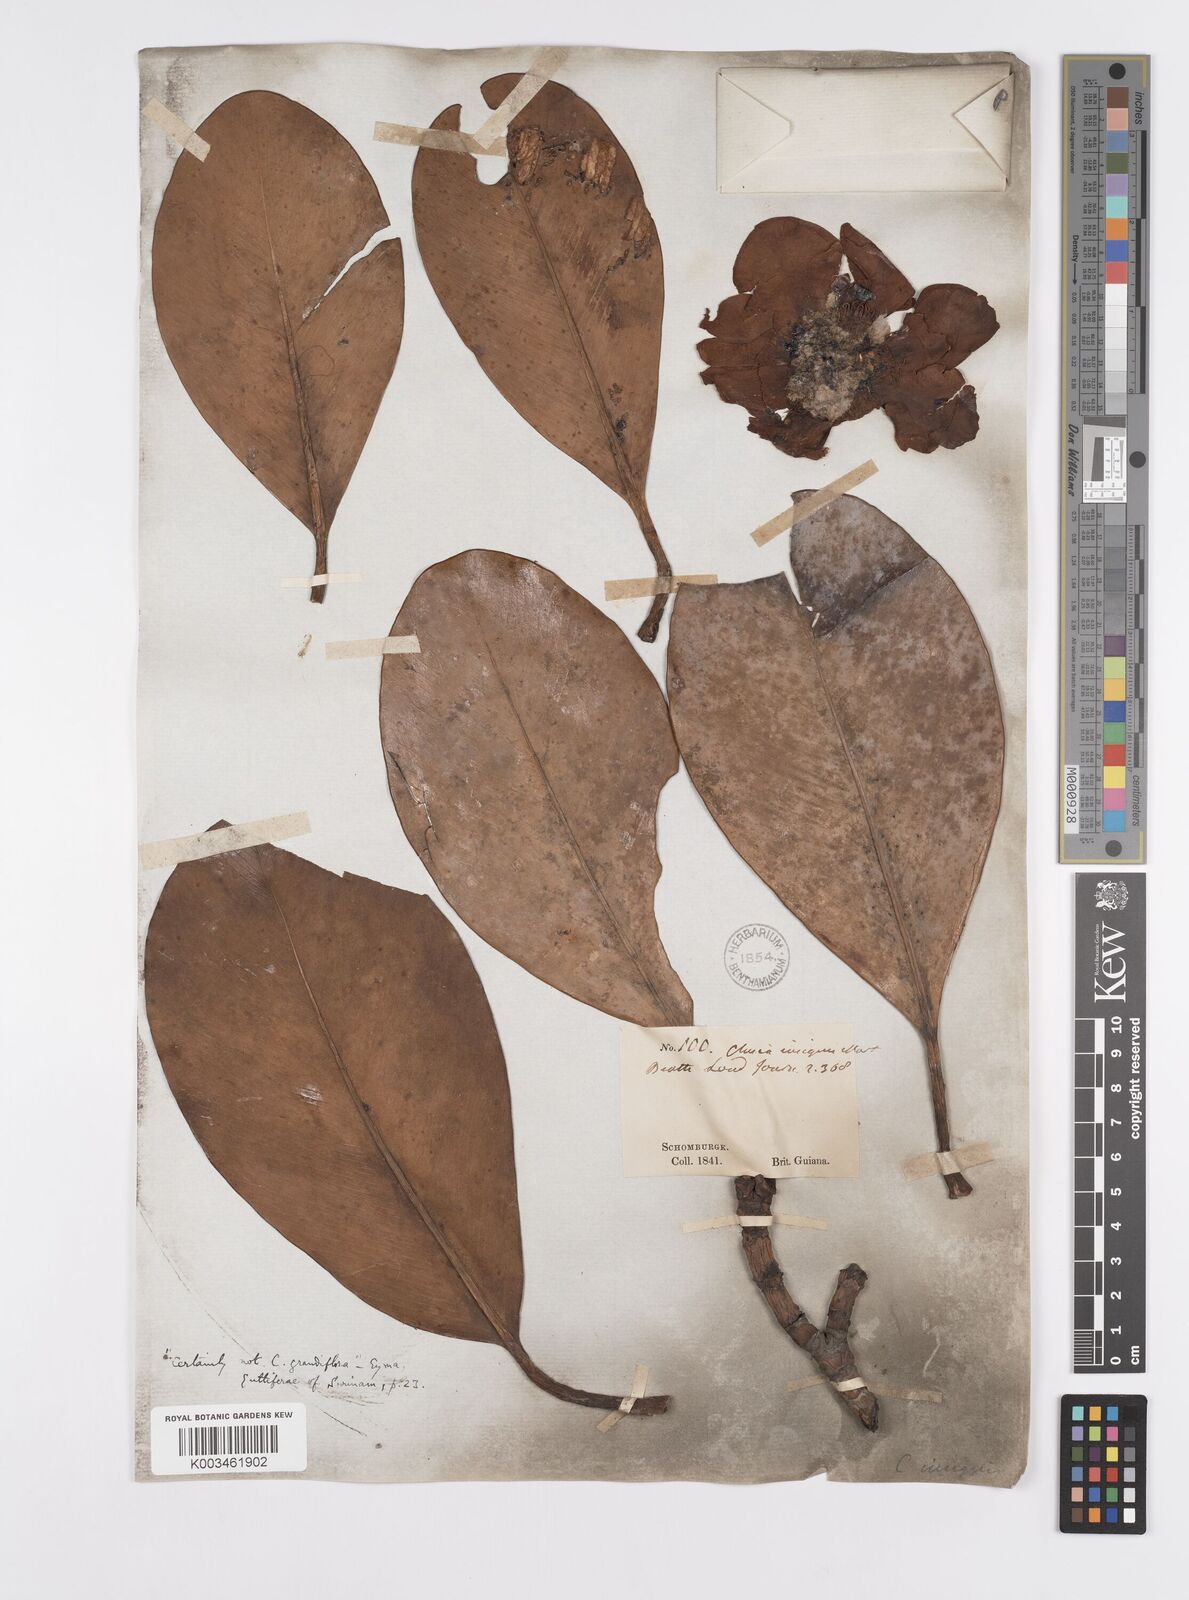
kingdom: Plantae
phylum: Tracheophyta
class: Magnoliopsida
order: Malpighiales
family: Clusiaceae
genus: Clusia
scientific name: Clusia grandiflora
